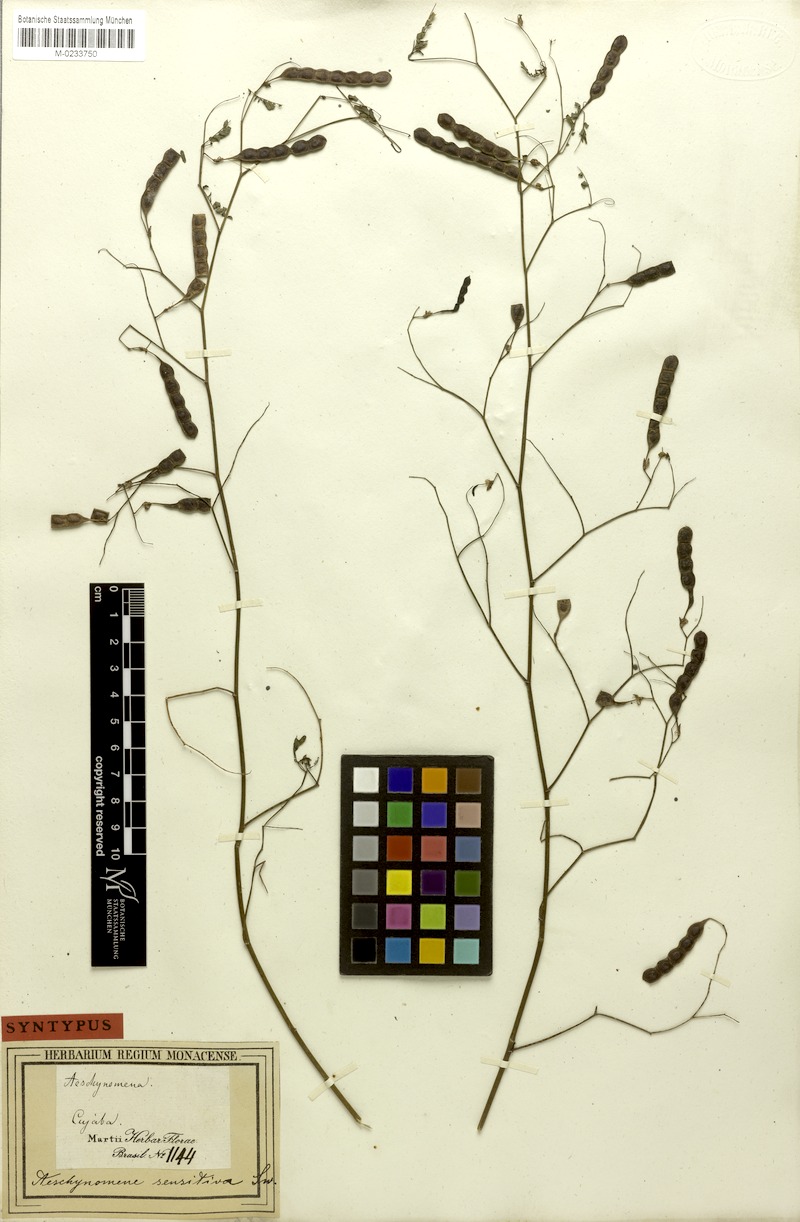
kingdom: Plantae
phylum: Tracheophyta
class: Magnoliopsida
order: Fabales
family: Fabaceae
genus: Aeschynomene
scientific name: Aeschynomene sensitiva
